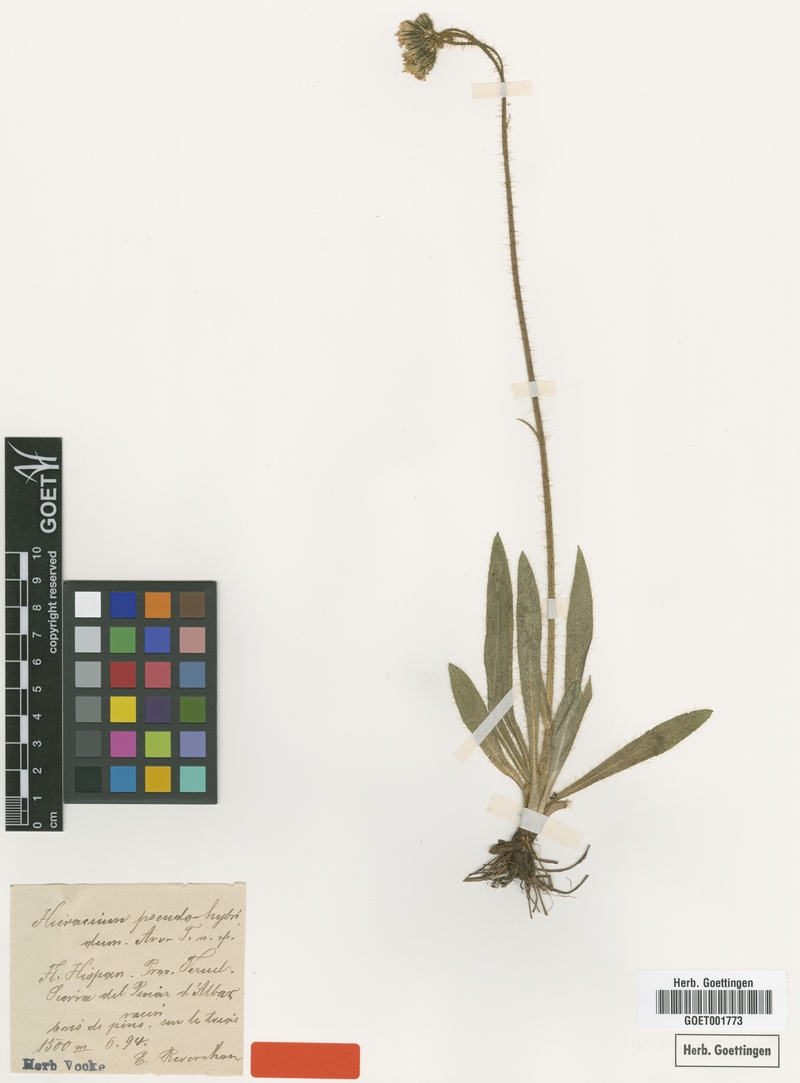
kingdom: Plantae
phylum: Tracheophyta
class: Magnoliopsida
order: Asterales
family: Asteraceae
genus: Pilosella
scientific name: Pilosella pseudohybrida
